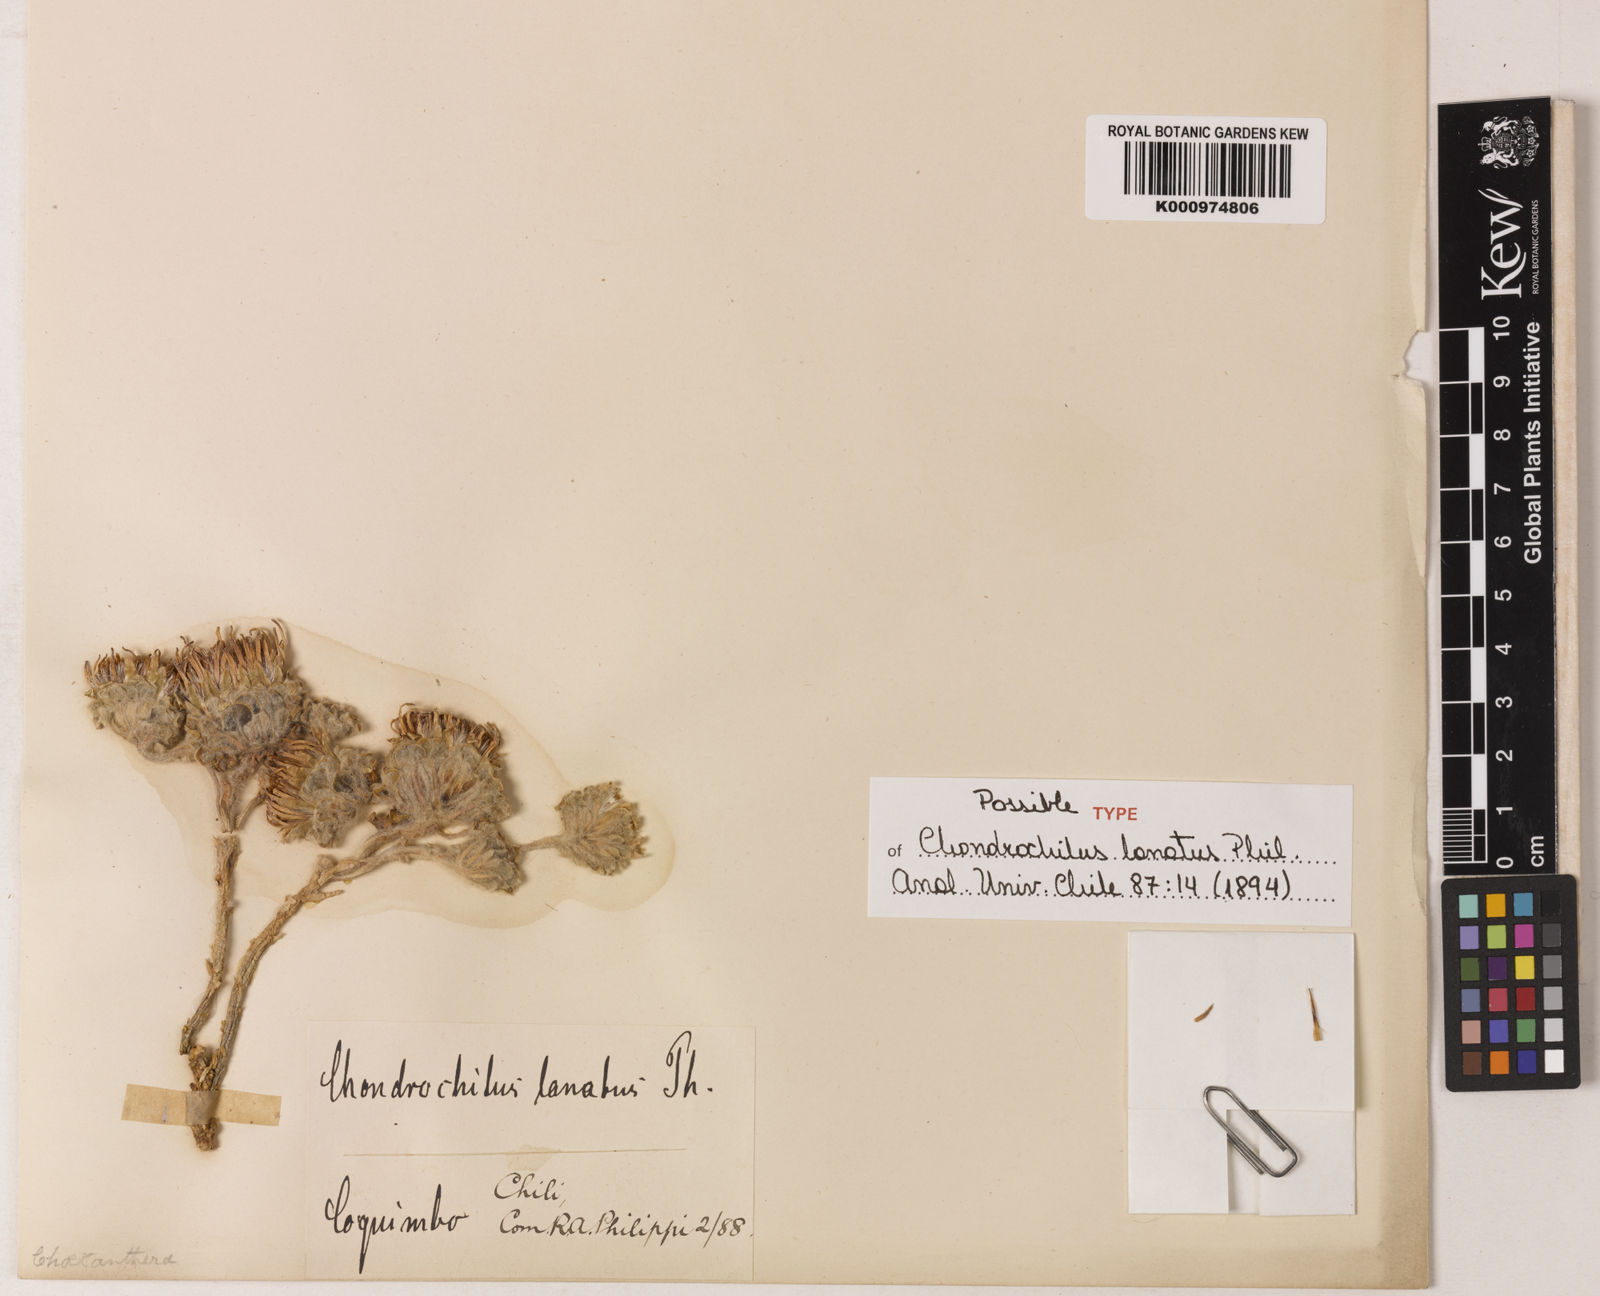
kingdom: Plantae
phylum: Tracheophyta
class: Magnoliopsida
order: Asterales
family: Asteraceae
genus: Chaetanthera
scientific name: Chaetanthera lanata
